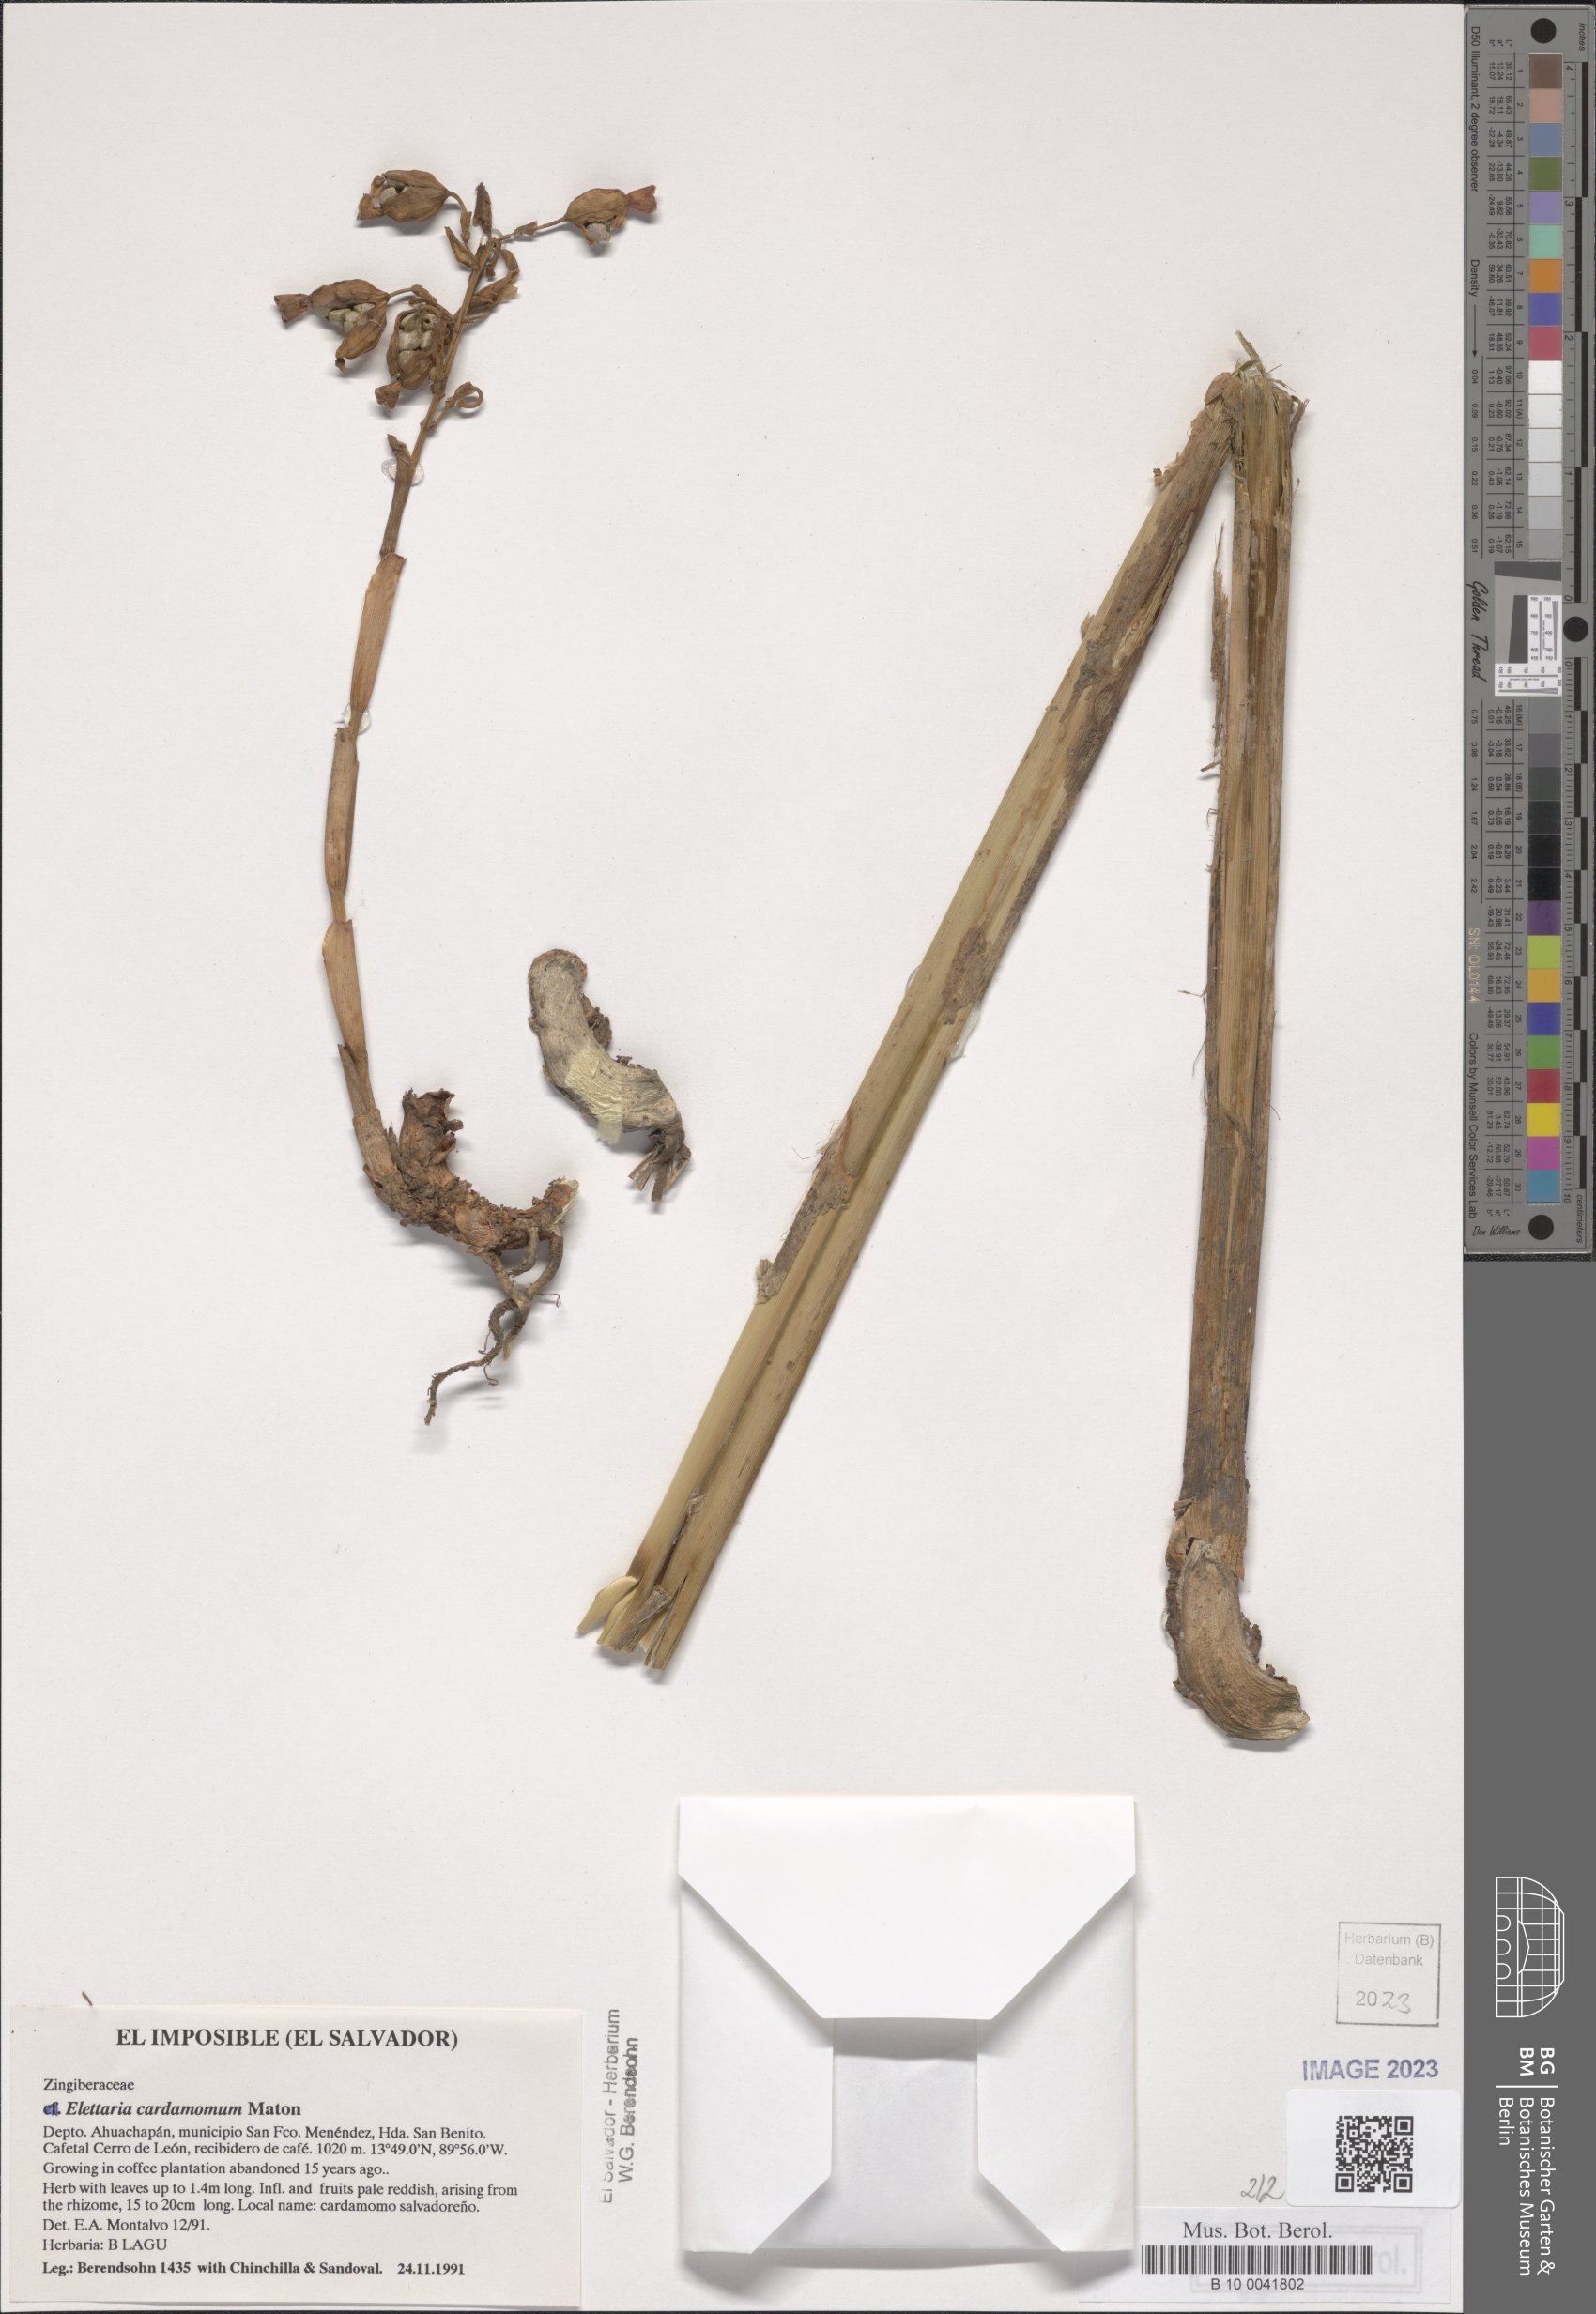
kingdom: Plantae
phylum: Tracheophyta
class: Liliopsida
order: Zingiberales
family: Zingiberaceae
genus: Renealmia
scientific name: Renealmia pacifica
